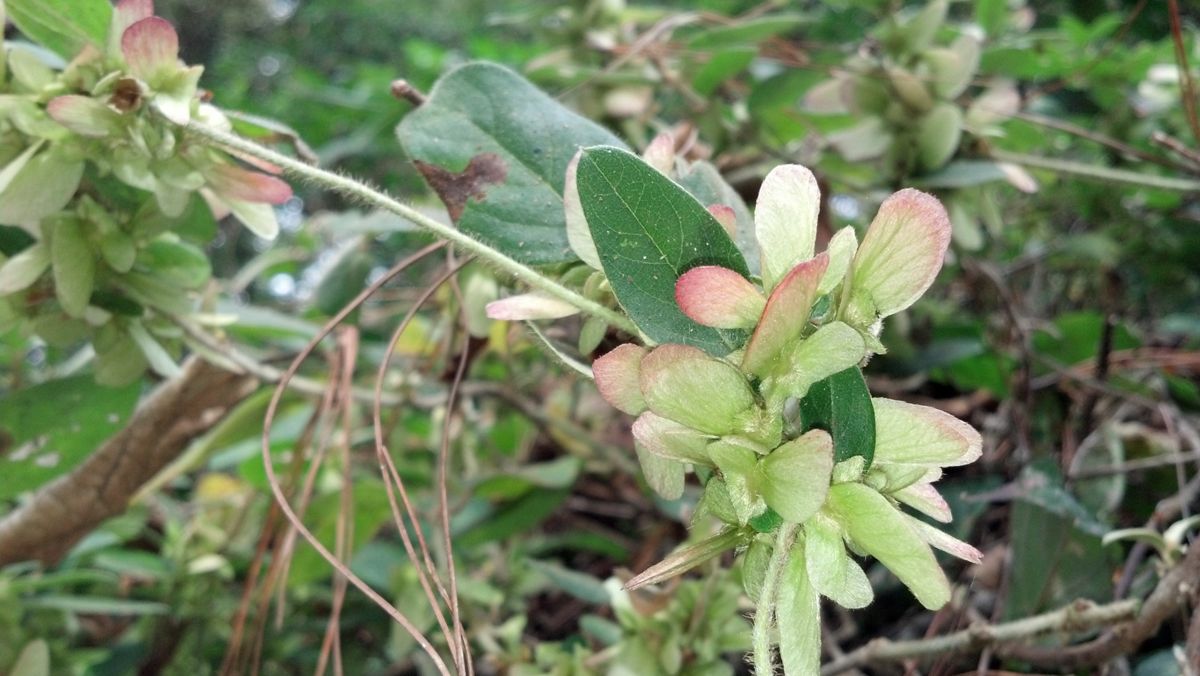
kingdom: Plantae
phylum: Tracheophyta
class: Magnoliopsida
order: Malpighiales
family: Malpighiaceae
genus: Gaudichaudia
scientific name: Gaudichaudia albida
